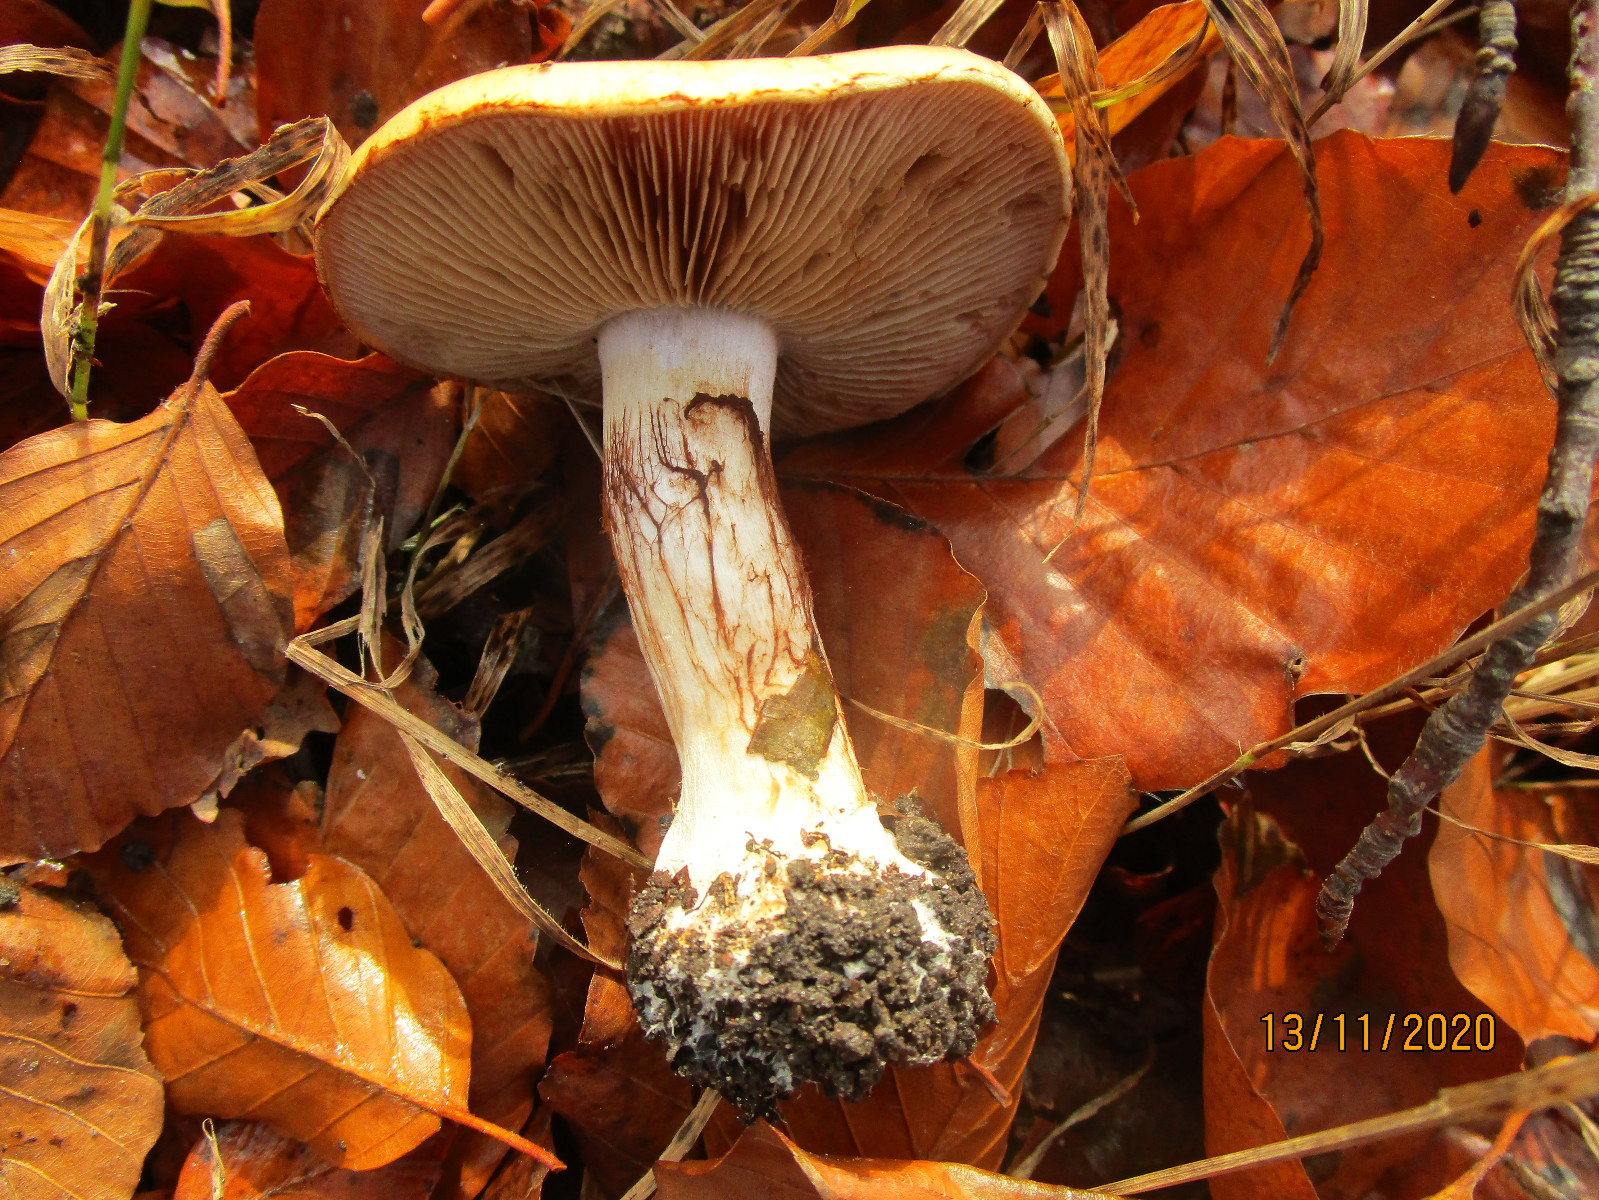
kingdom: Fungi
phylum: Basidiomycota
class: Agaricomycetes
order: Agaricales
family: Cortinariaceae
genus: Cortinarius
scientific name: Cortinarius anserinus
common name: bøge-slørhat
